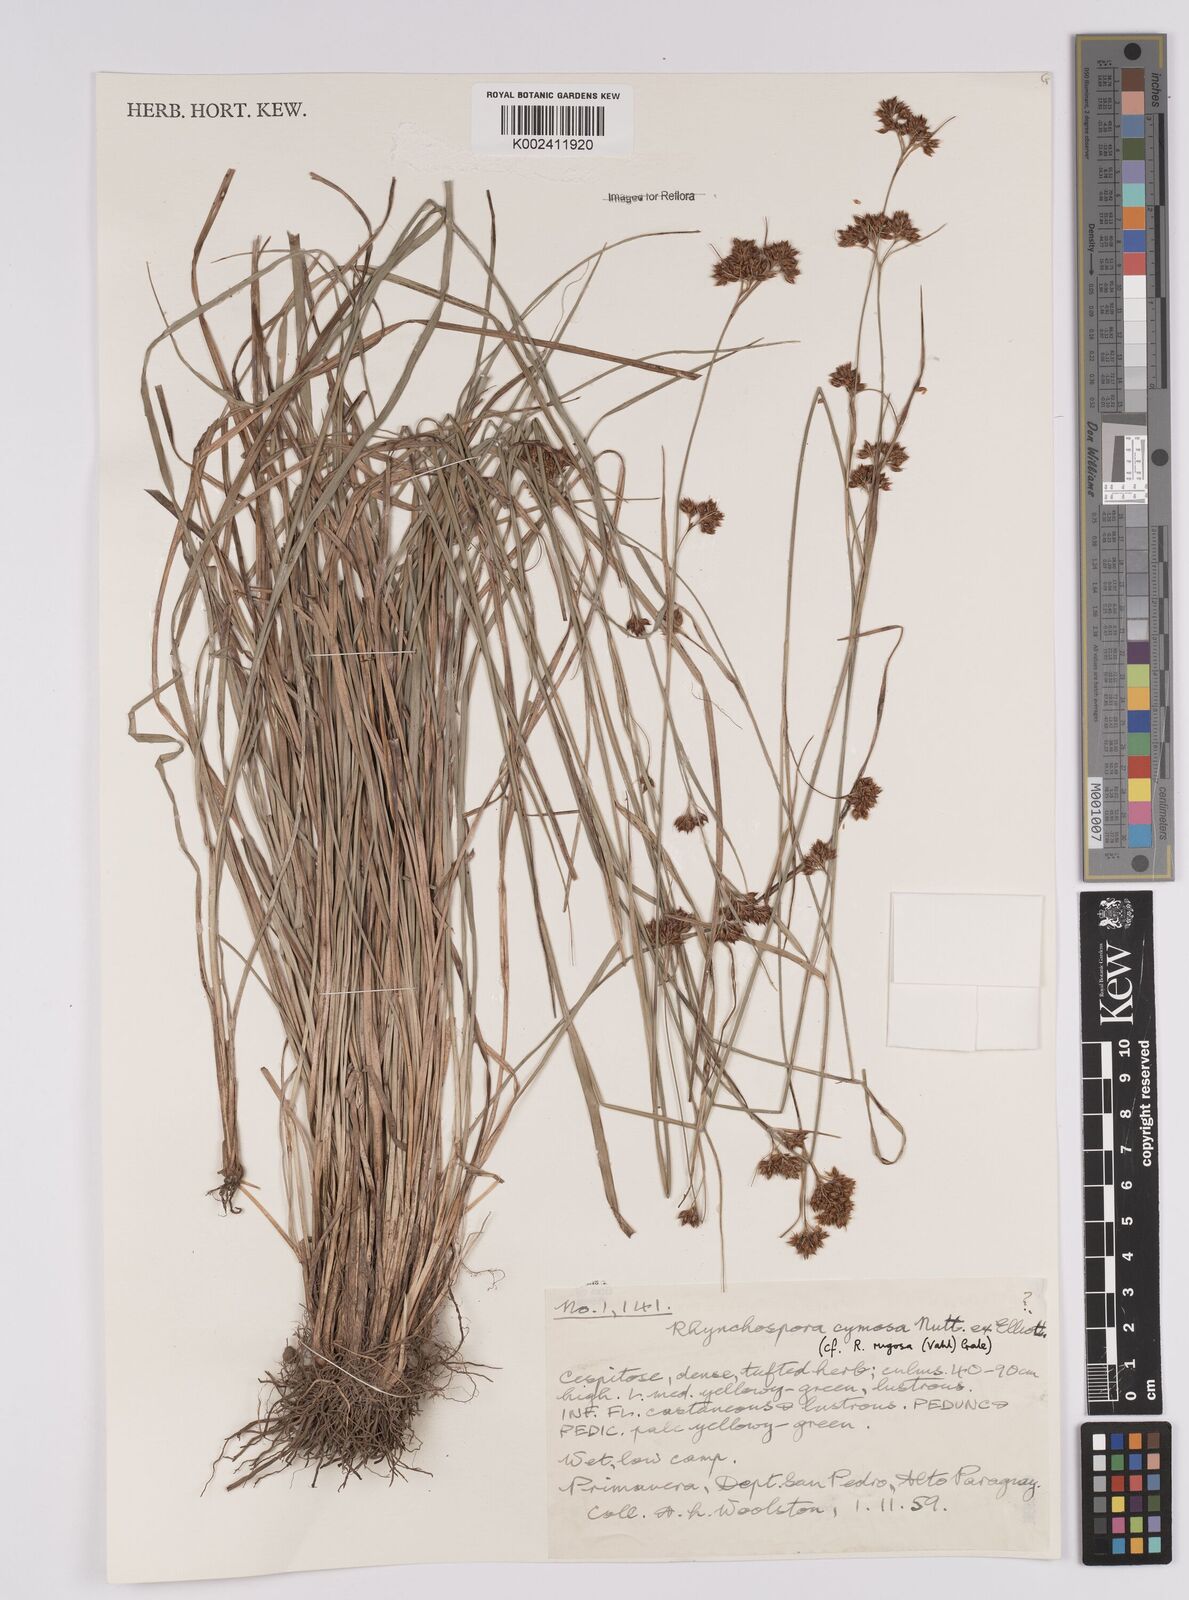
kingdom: Plantae
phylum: Tracheophyta
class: Liliopsida
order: Poales
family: Cyperaceae
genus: Rhynchospora
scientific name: Rhynchospora rugosa
